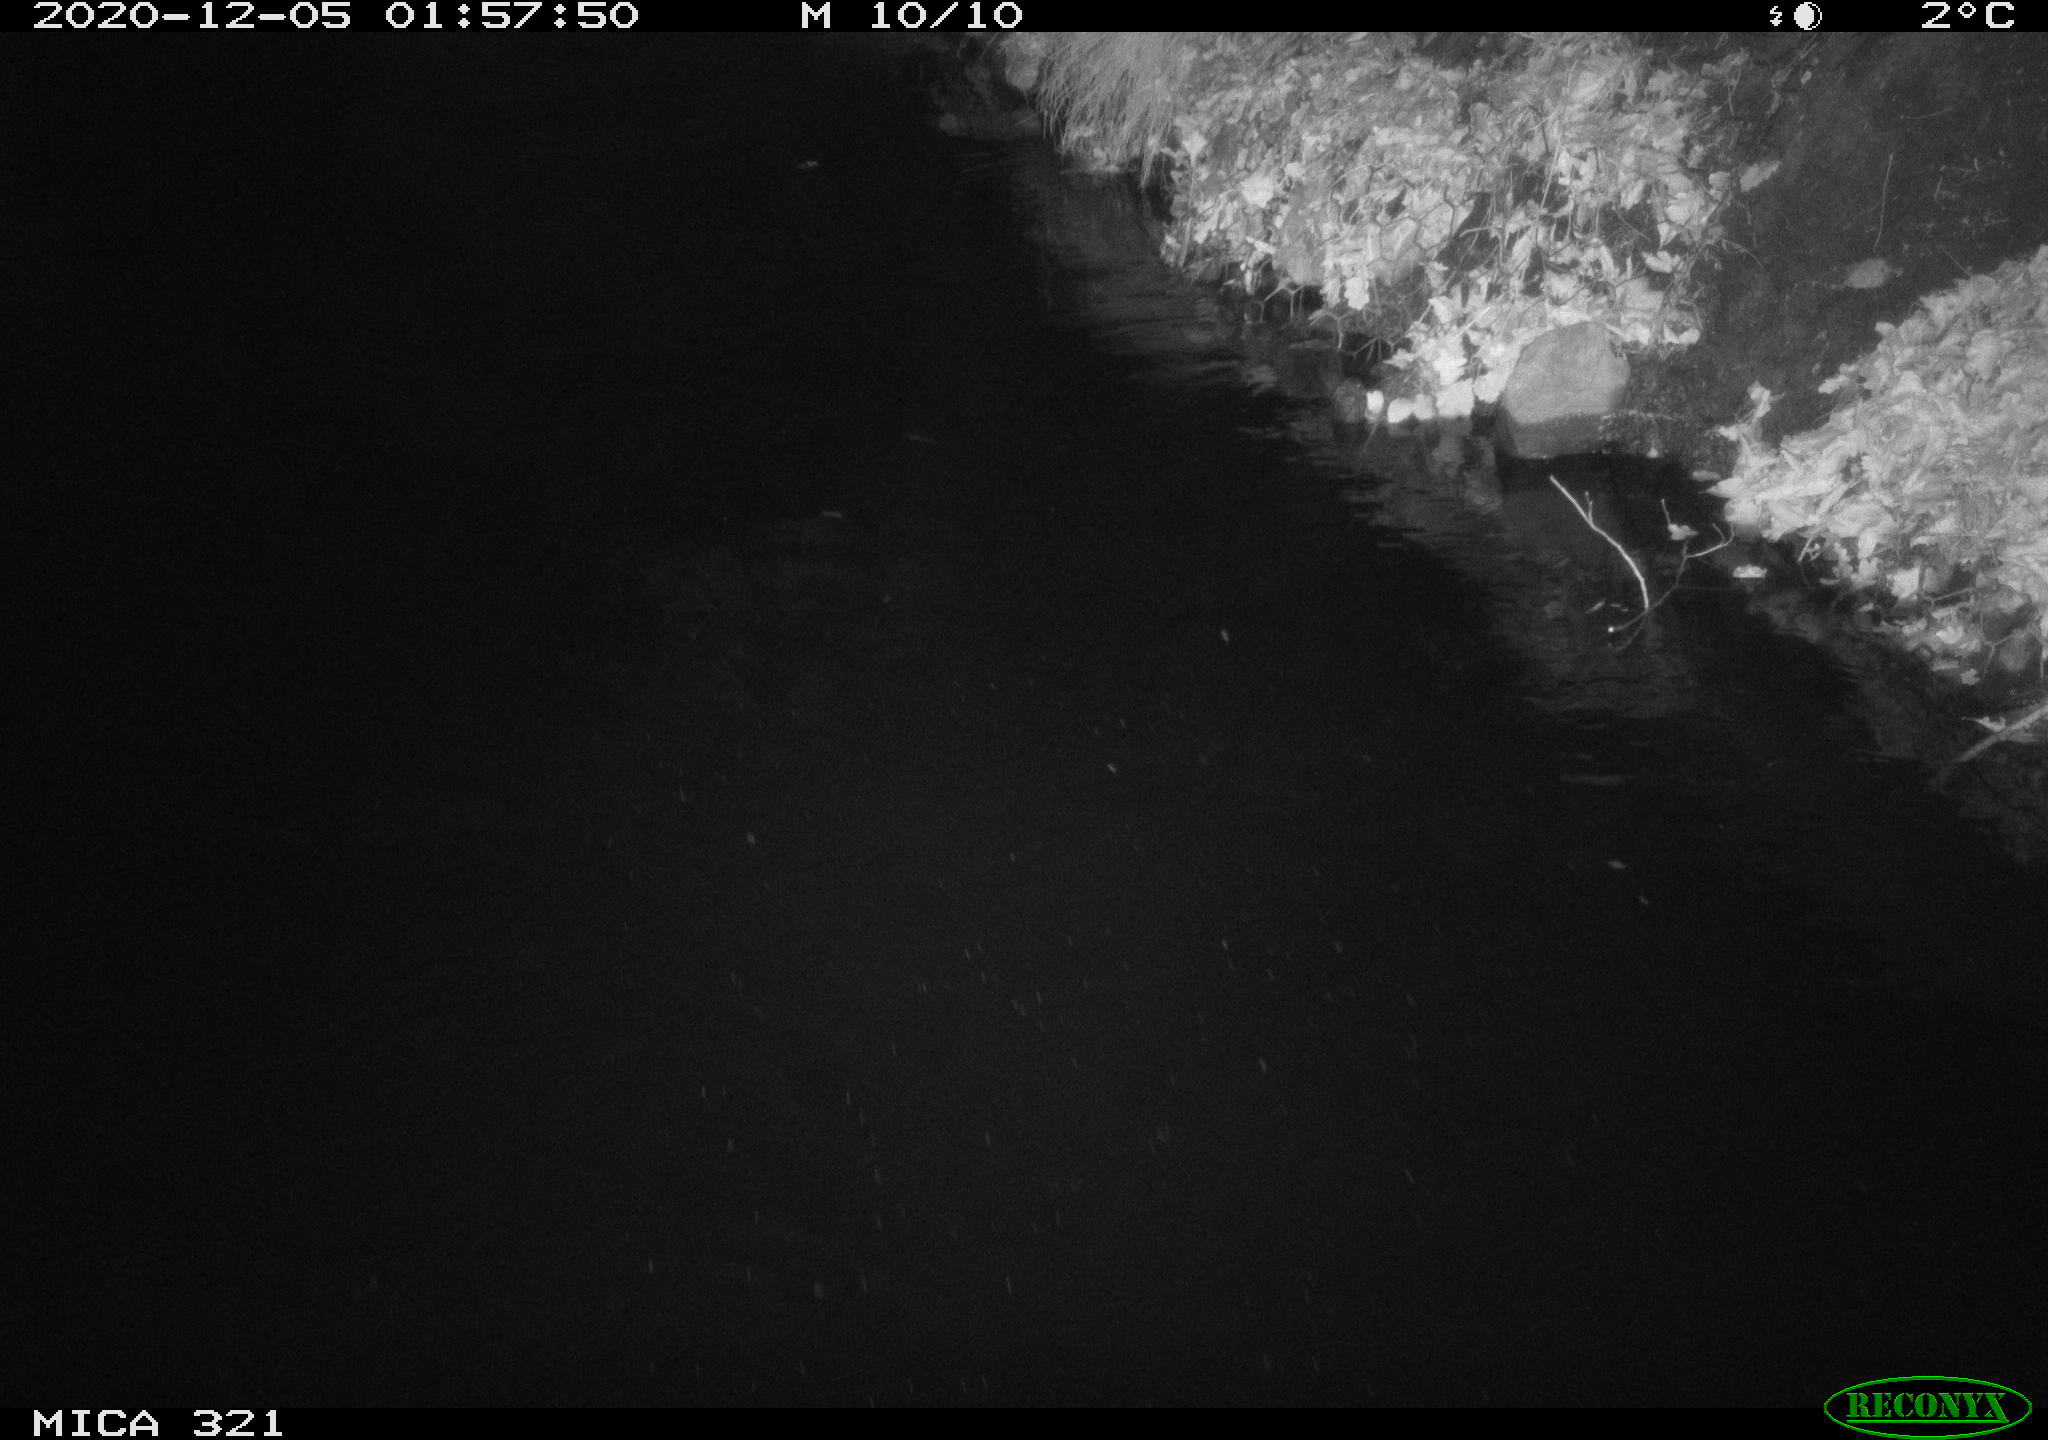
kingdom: Animalia
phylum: Chordata
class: Aves
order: Anseriformes
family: Anatidae
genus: Anas
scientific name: Anas platyrhynchos
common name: Mallard
